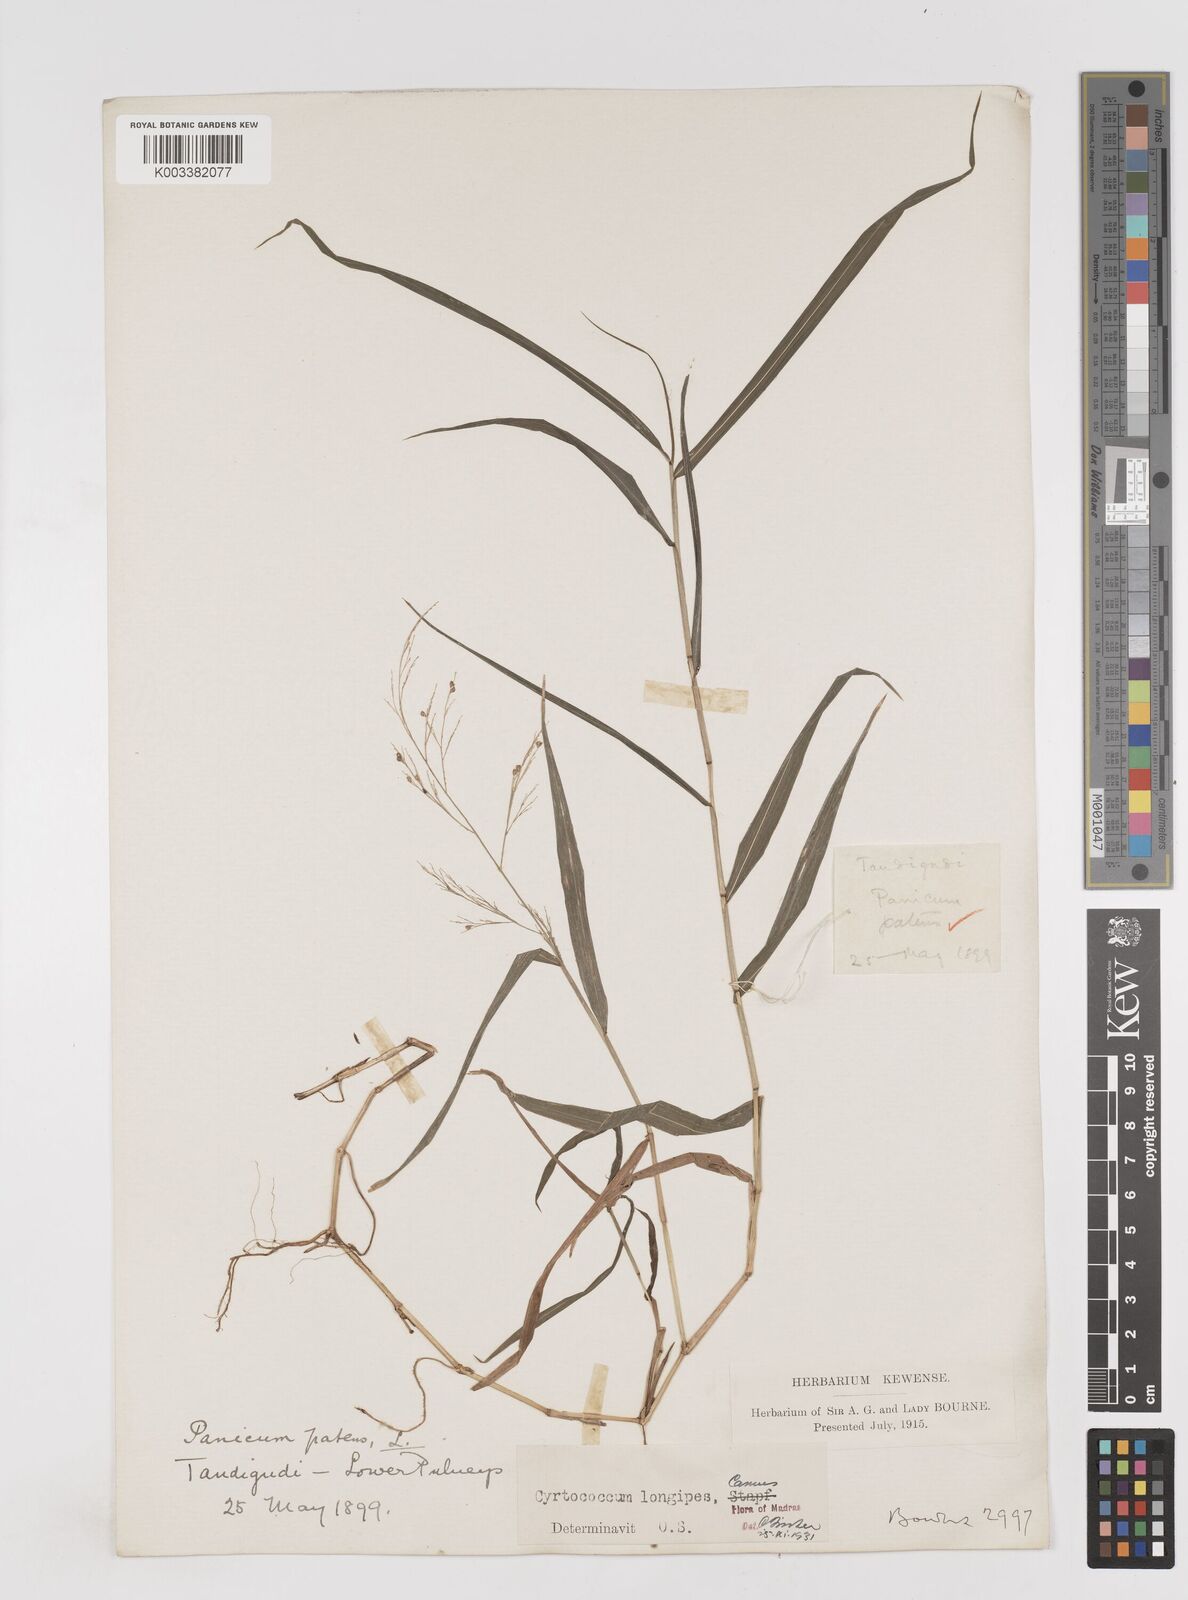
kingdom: Plantae
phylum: Tracheophyta
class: Liliopsida
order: Poales
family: Poaceae
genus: Cyrtococcum
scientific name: Cyrtococcum longipes
